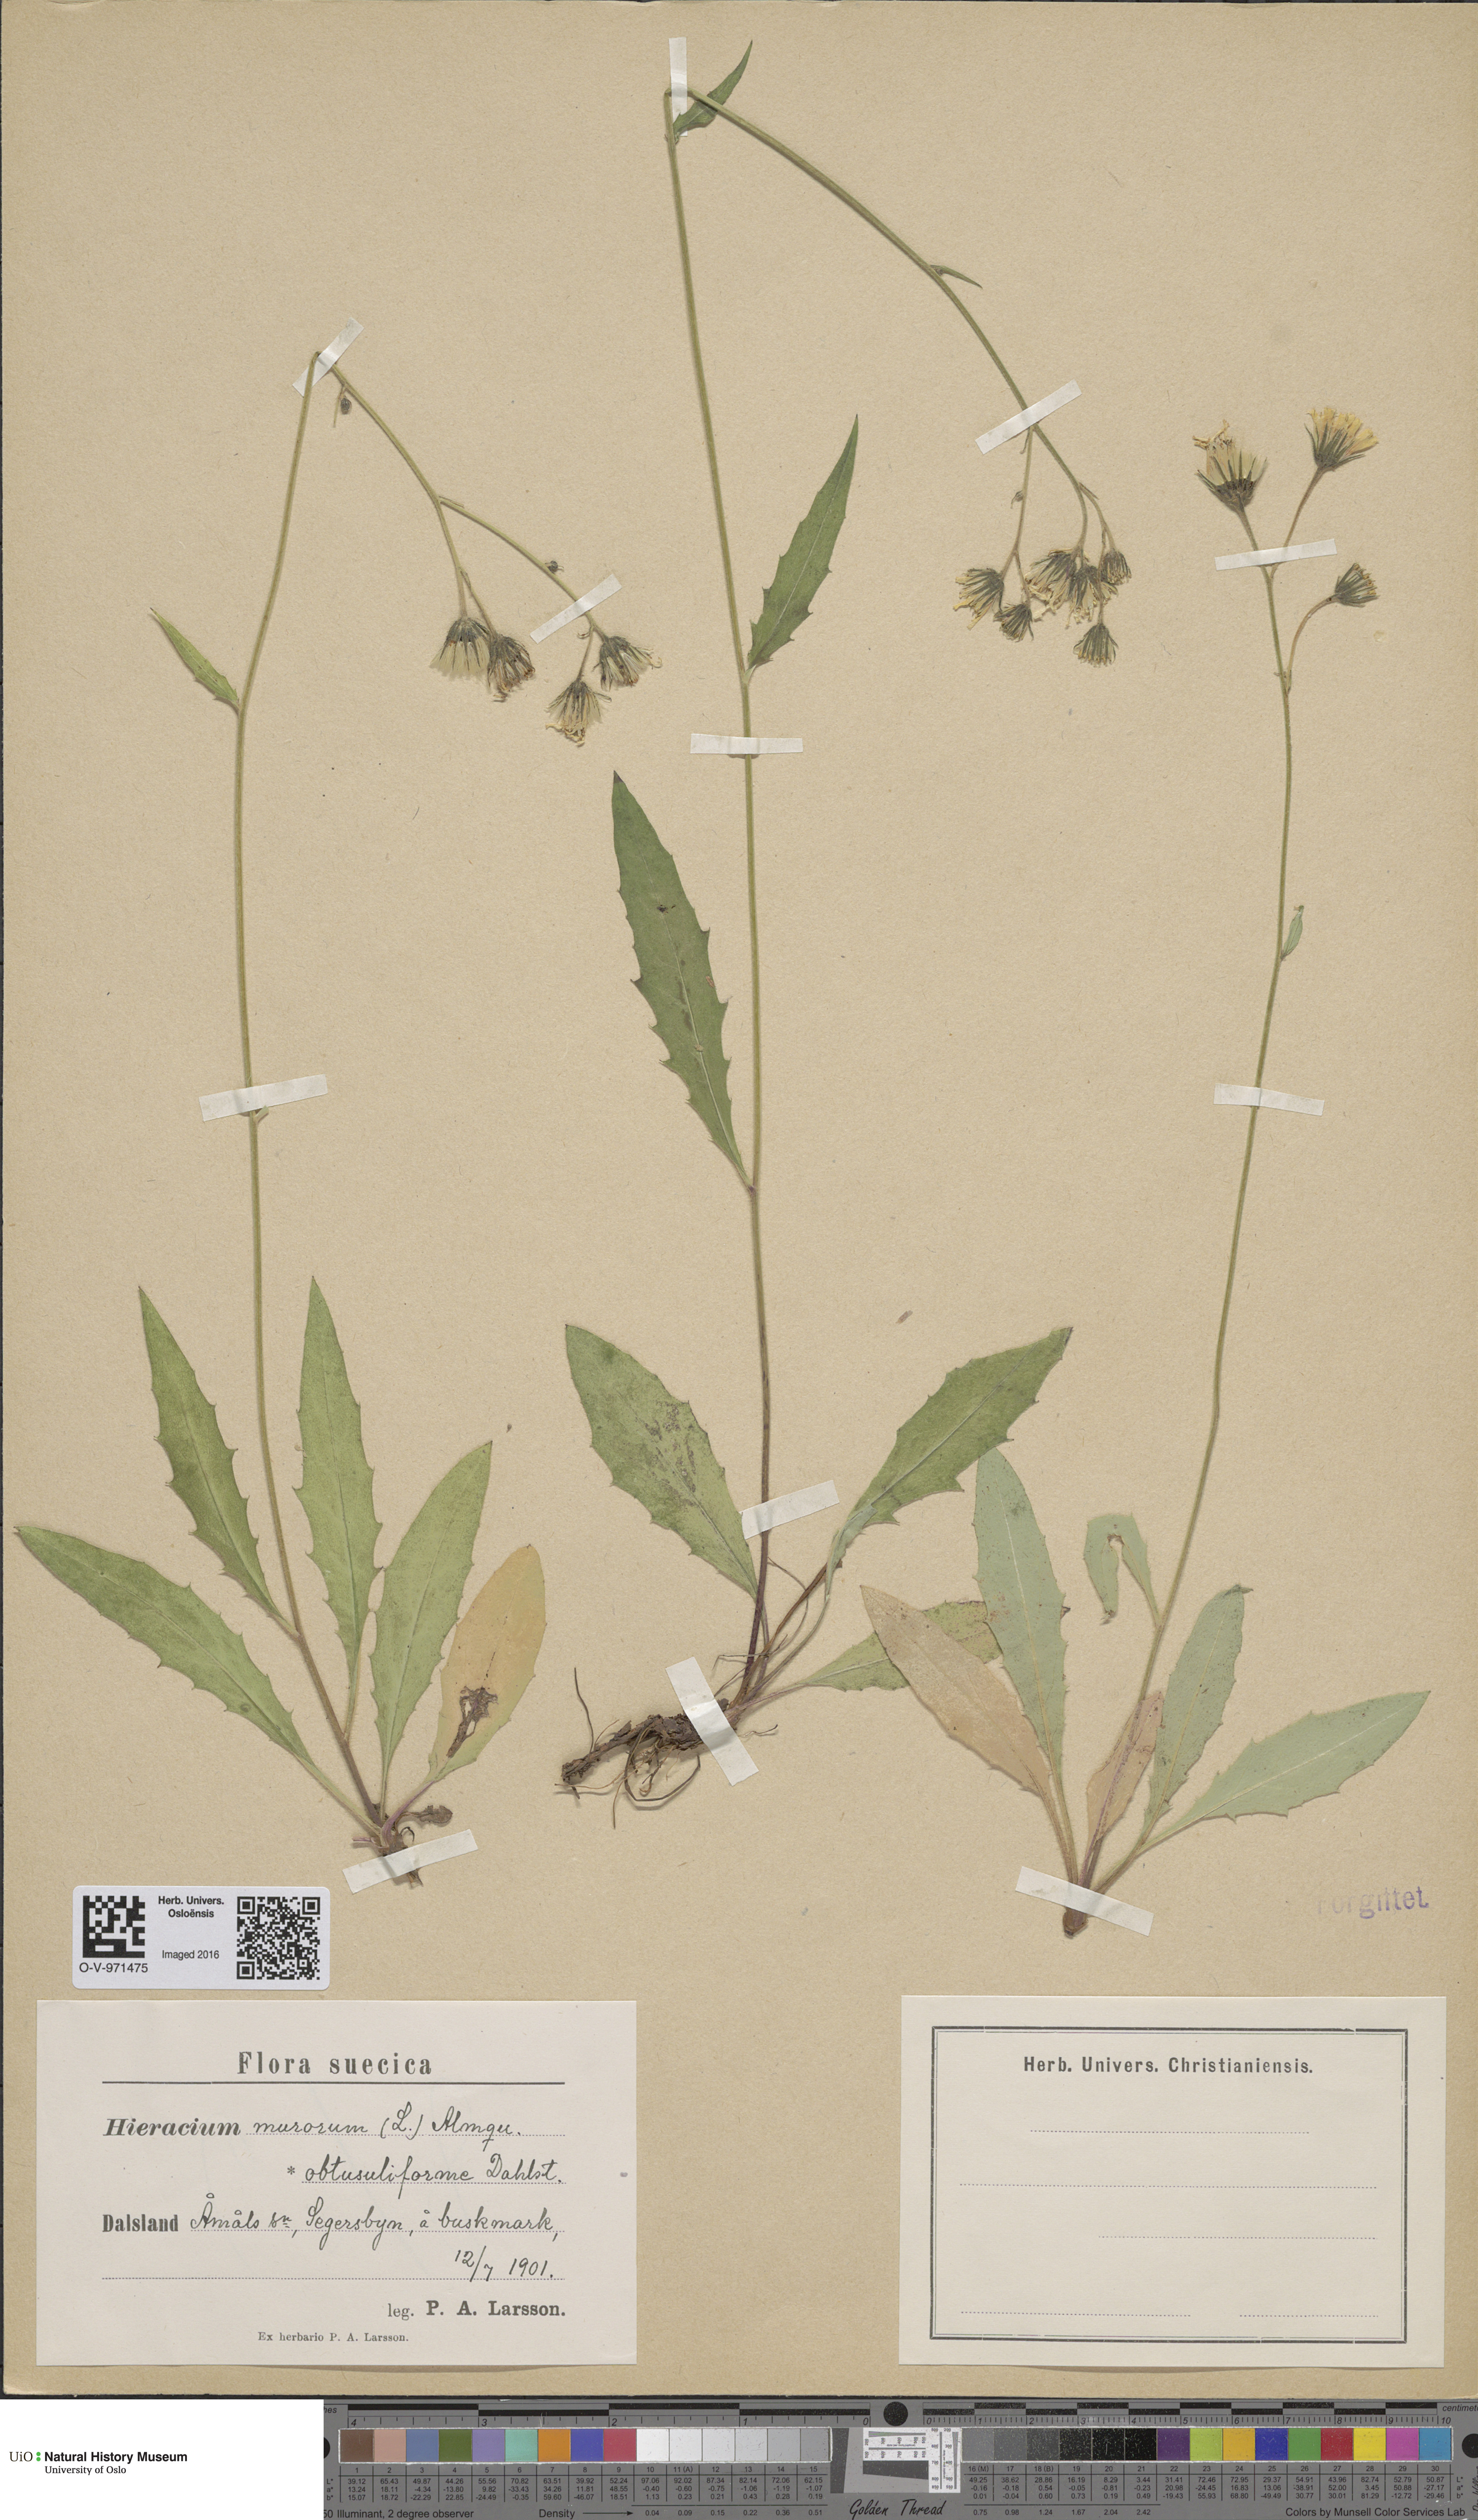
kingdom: Plantae
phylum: Tracheophyta
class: Magnoliopsida
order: Asterales
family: Asteraceae
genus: Hieracium
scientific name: Hieracium murorum
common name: Wall hawkweed
